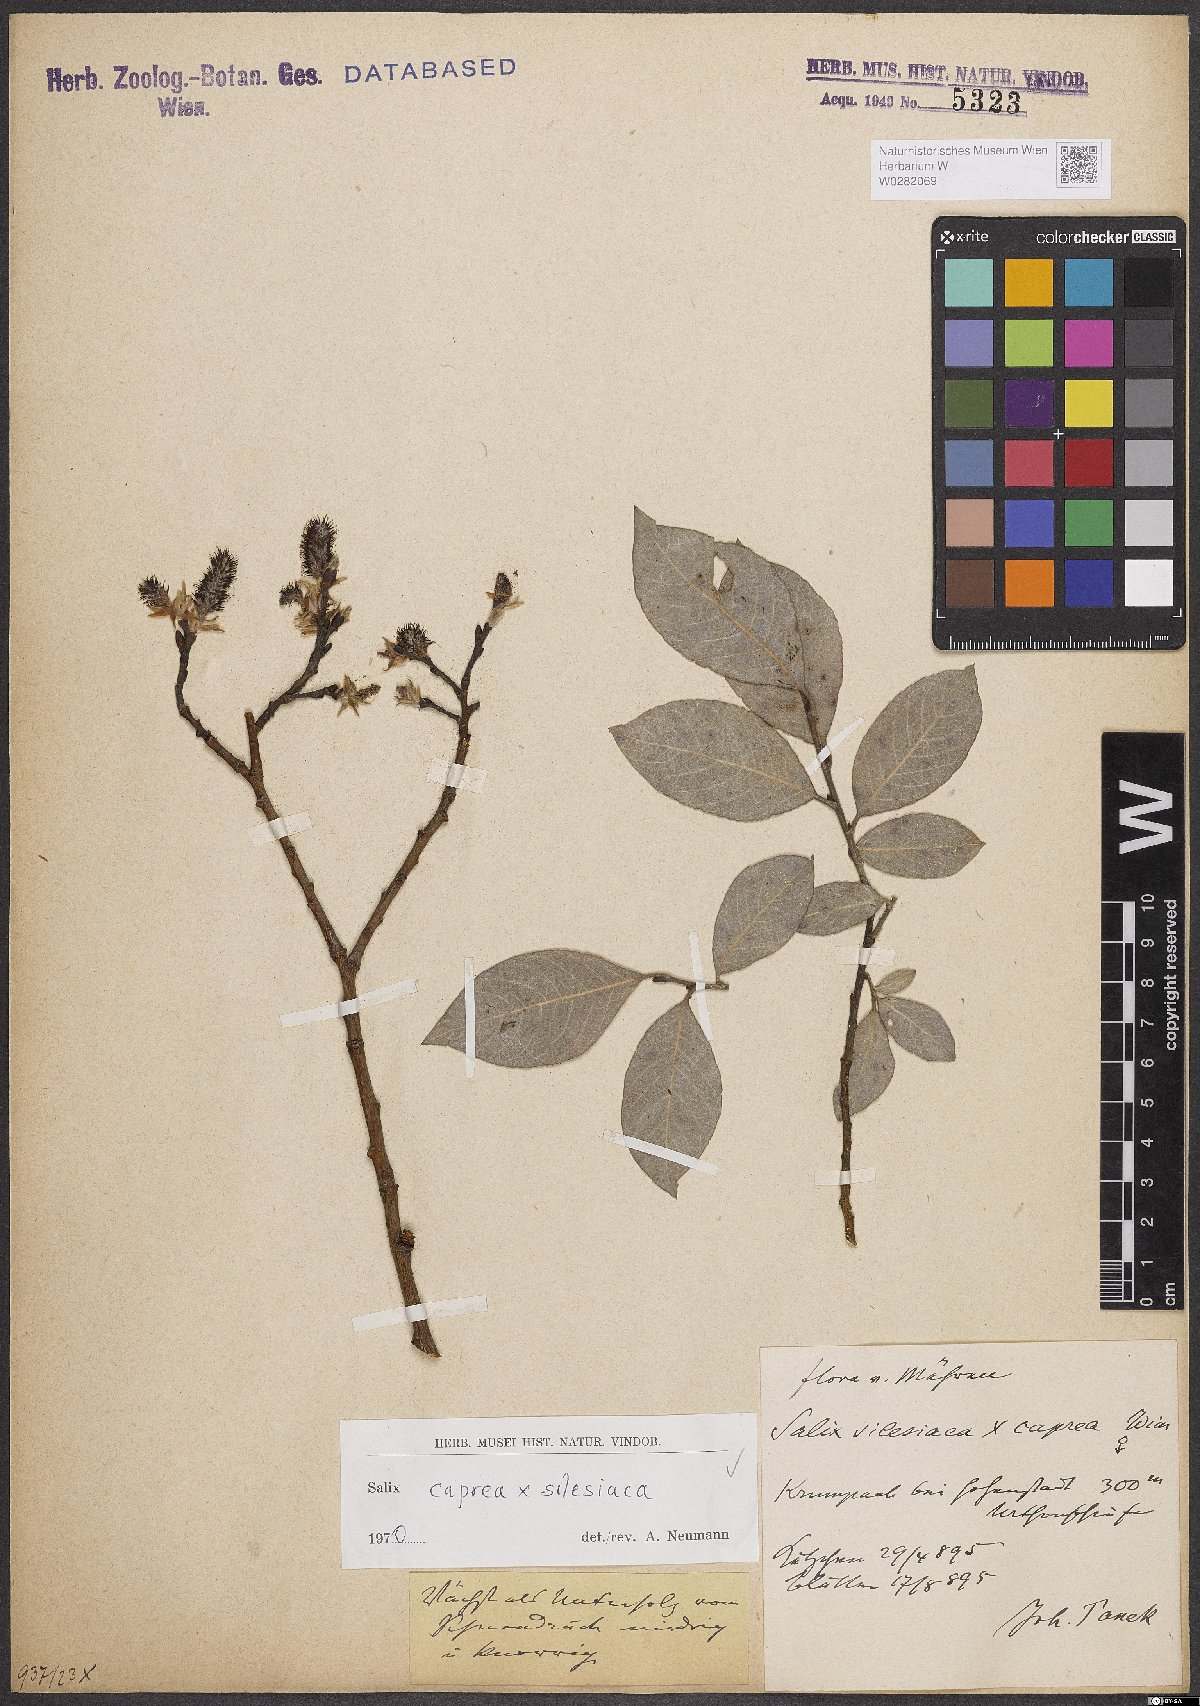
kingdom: Plantae
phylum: Tracheophyta
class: Magnoliopsida
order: Malpighiales
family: Salicaceae
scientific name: Salicaceae
